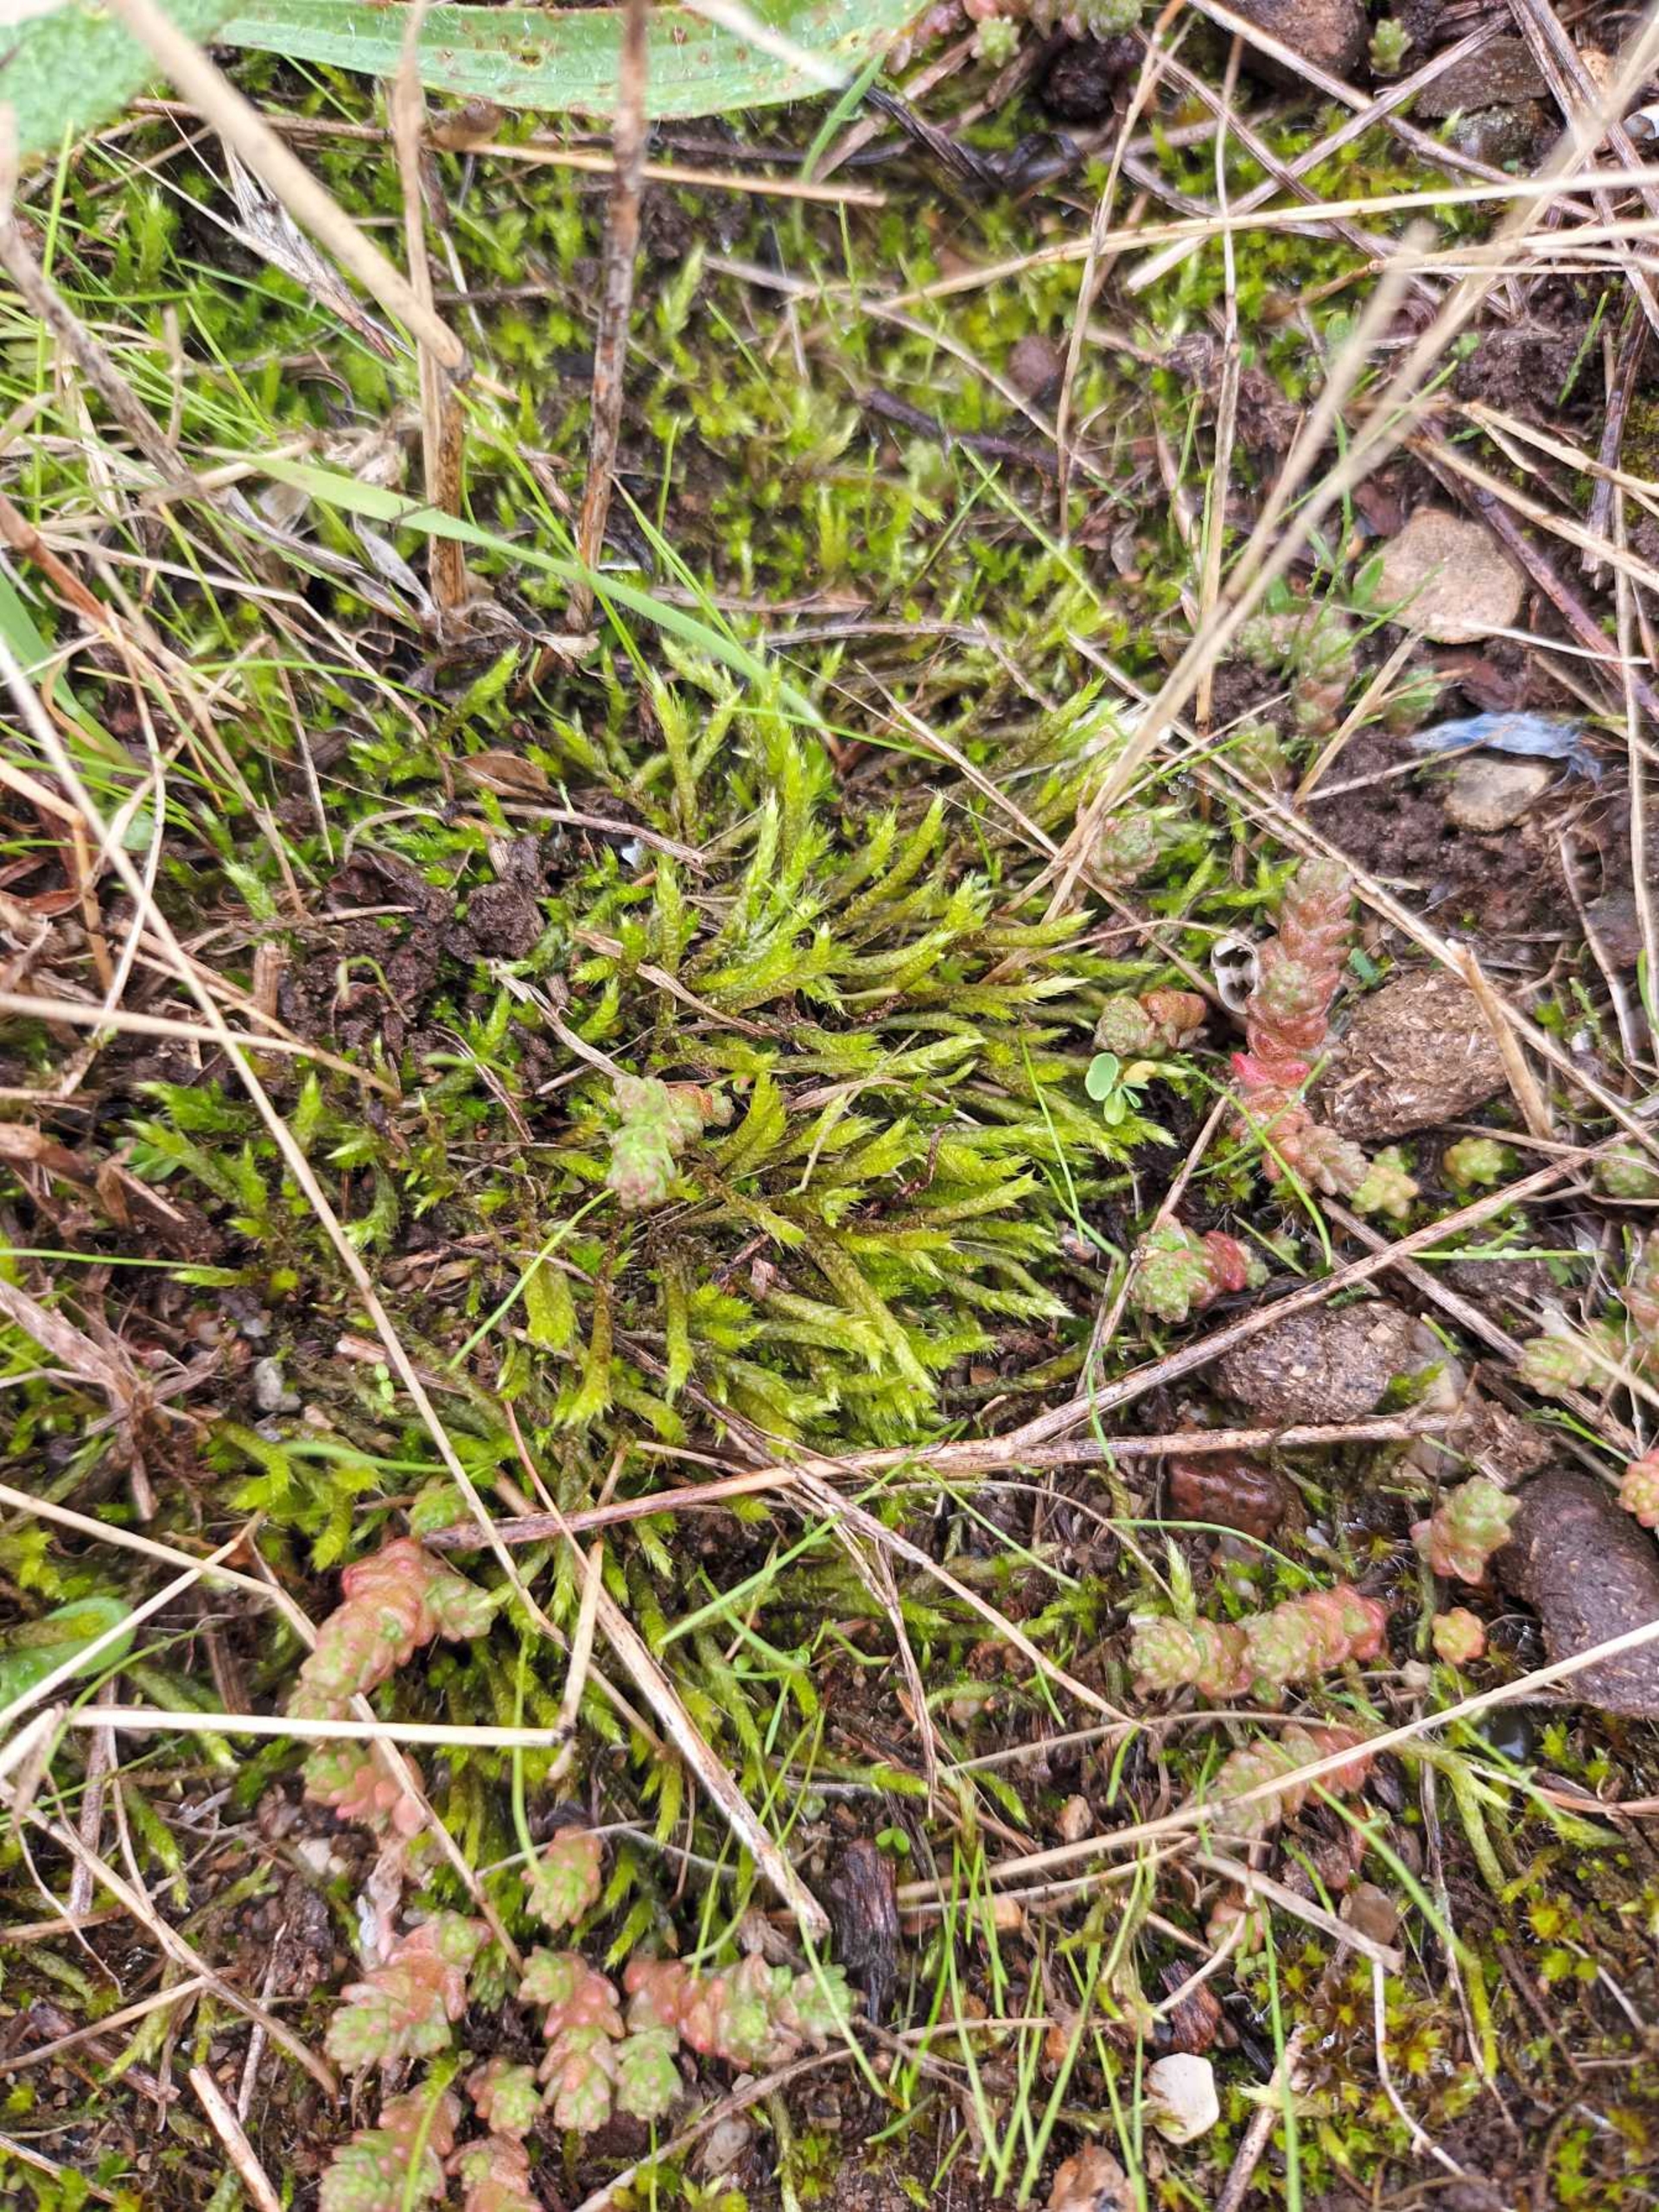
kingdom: Plantae
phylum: Bryophyta
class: Bryopsida
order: Hypnales
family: Brachytheciaceae
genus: Brachythecium
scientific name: Brachythecium albicans
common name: Hvidlig kortkapsel
